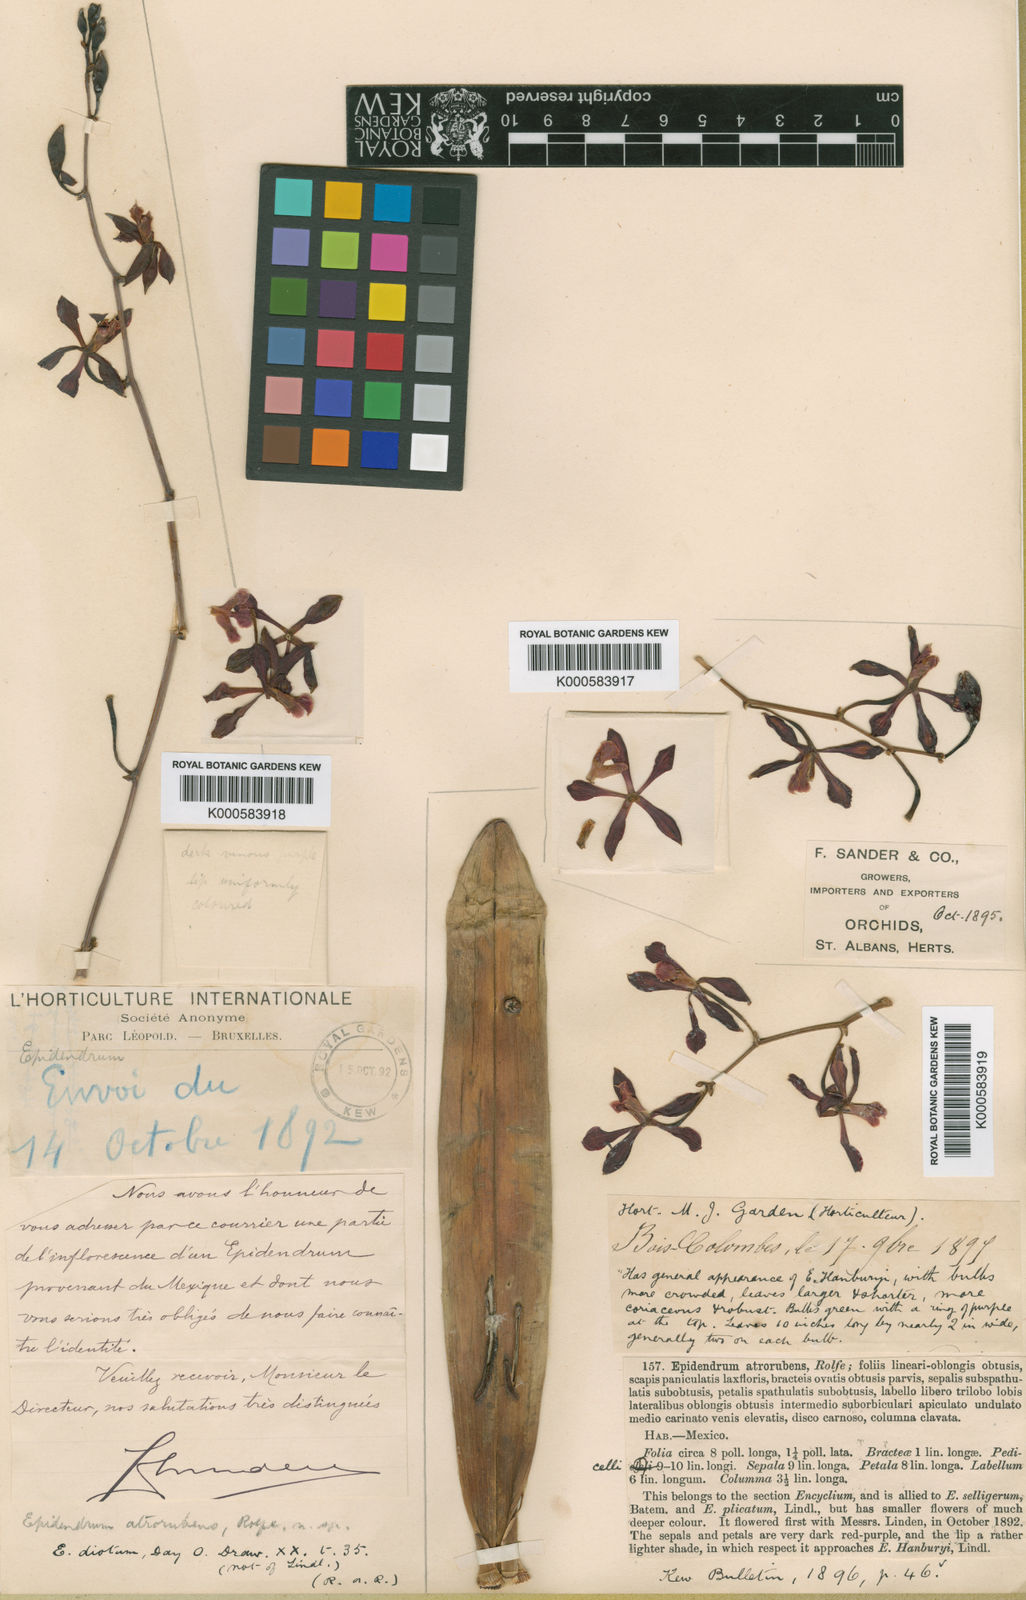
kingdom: Plantae
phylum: Tracheophyta
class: Liliopsida
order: Asparagales
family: Orchidaceae
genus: Encyclia
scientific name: Encyclia atrorubens
